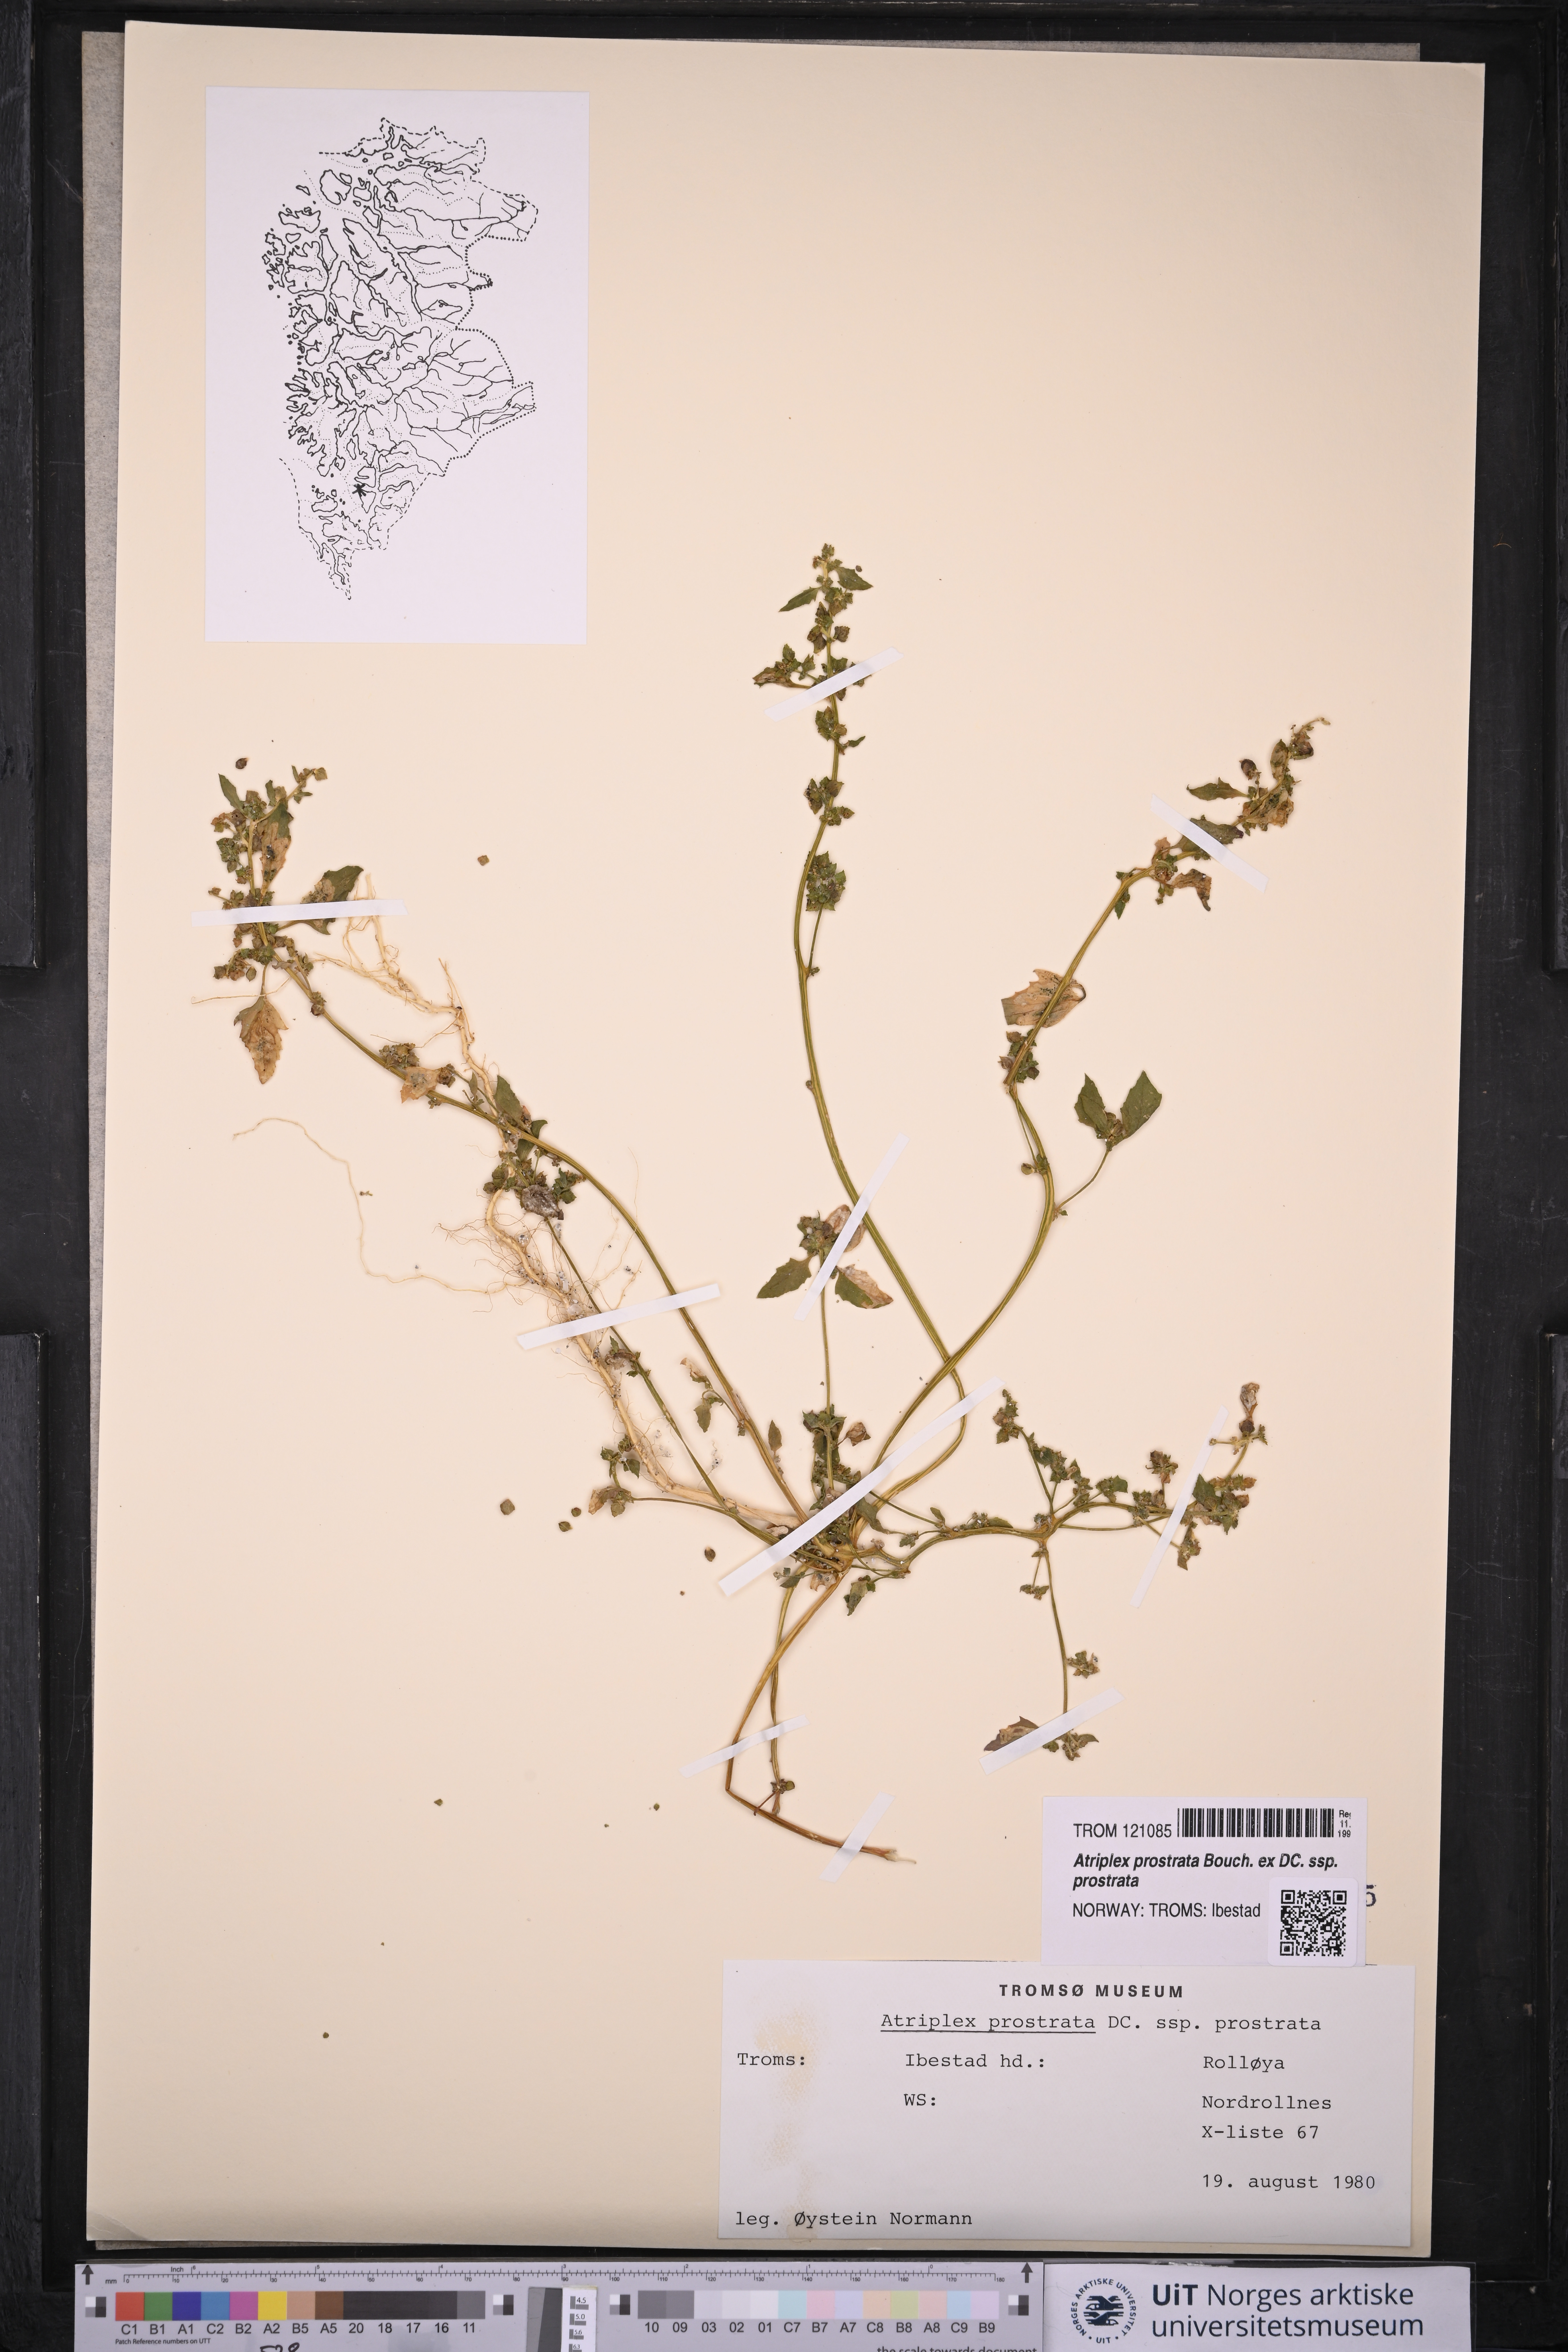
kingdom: Plantae
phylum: Tracheophyta
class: Magnoliopsida
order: Caryophyllales
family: Amaranthaceae
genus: Atriplex
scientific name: Atriplex prostrata
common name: Spear-leaved orache
